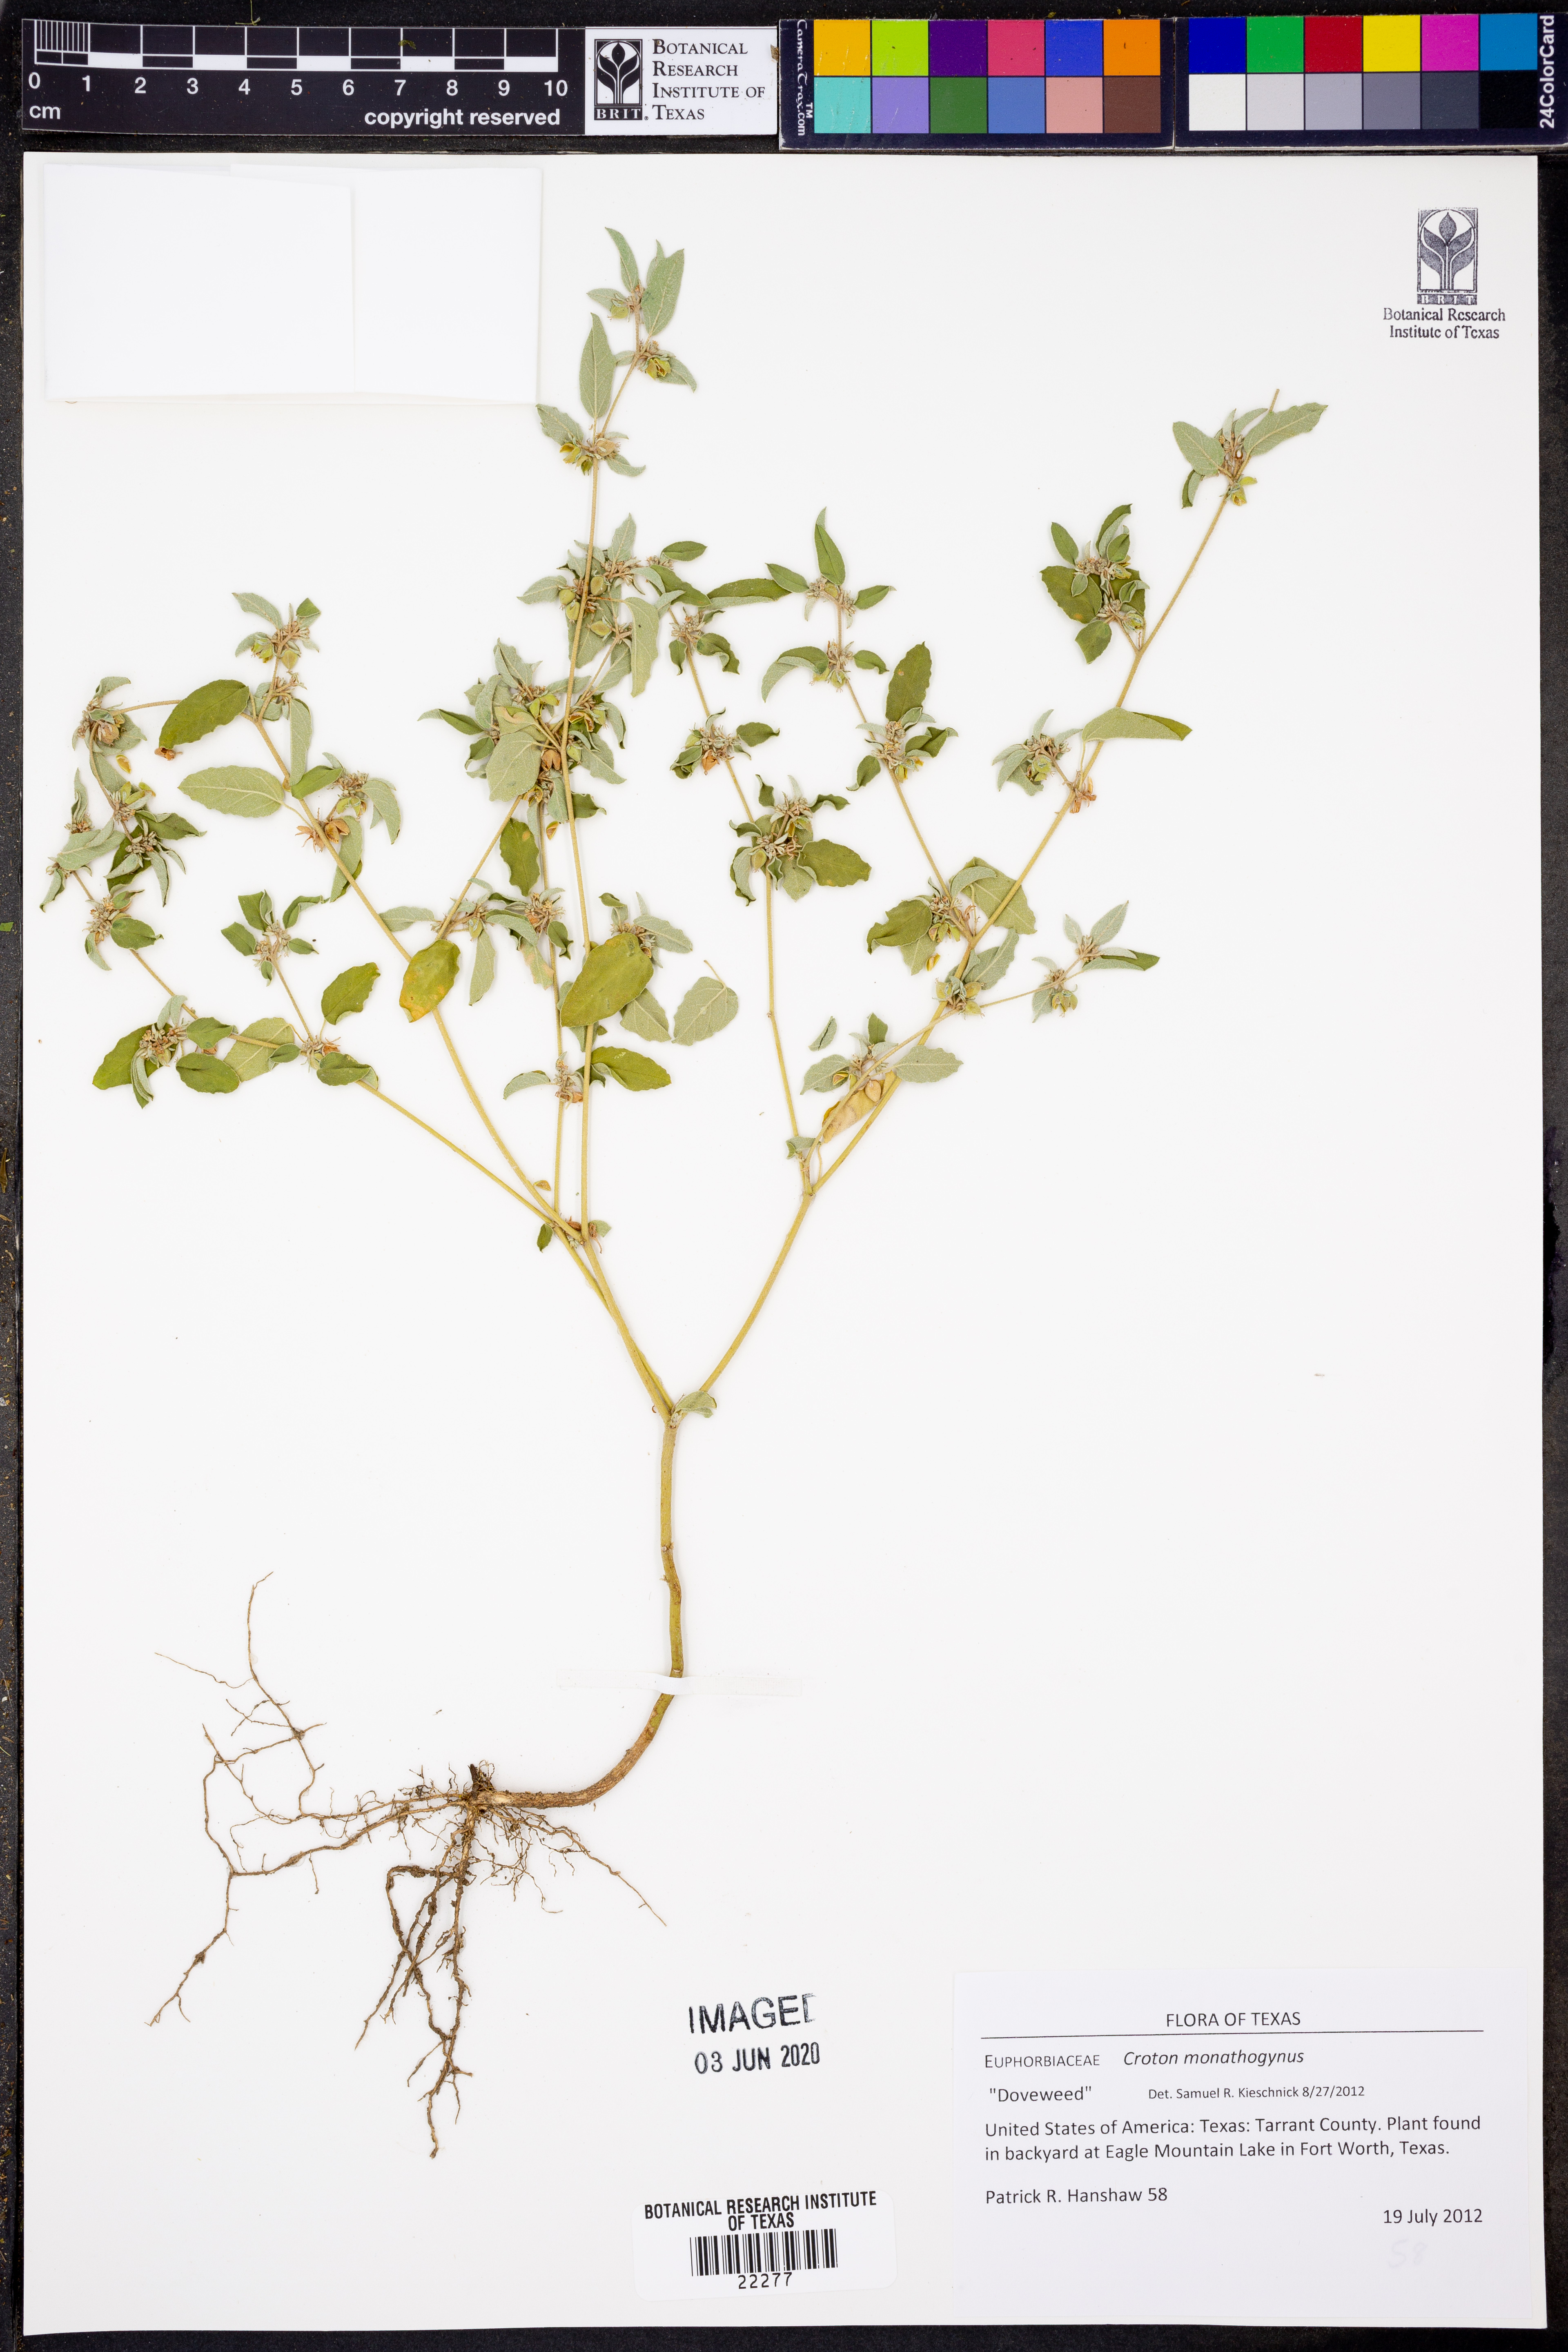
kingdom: Plantae
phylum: Tracheophyta
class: Magnoliopsida
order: Malpighiales
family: Euphorbiaceae
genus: Croton
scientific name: Croton monanthogynus
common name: One-seed croton
